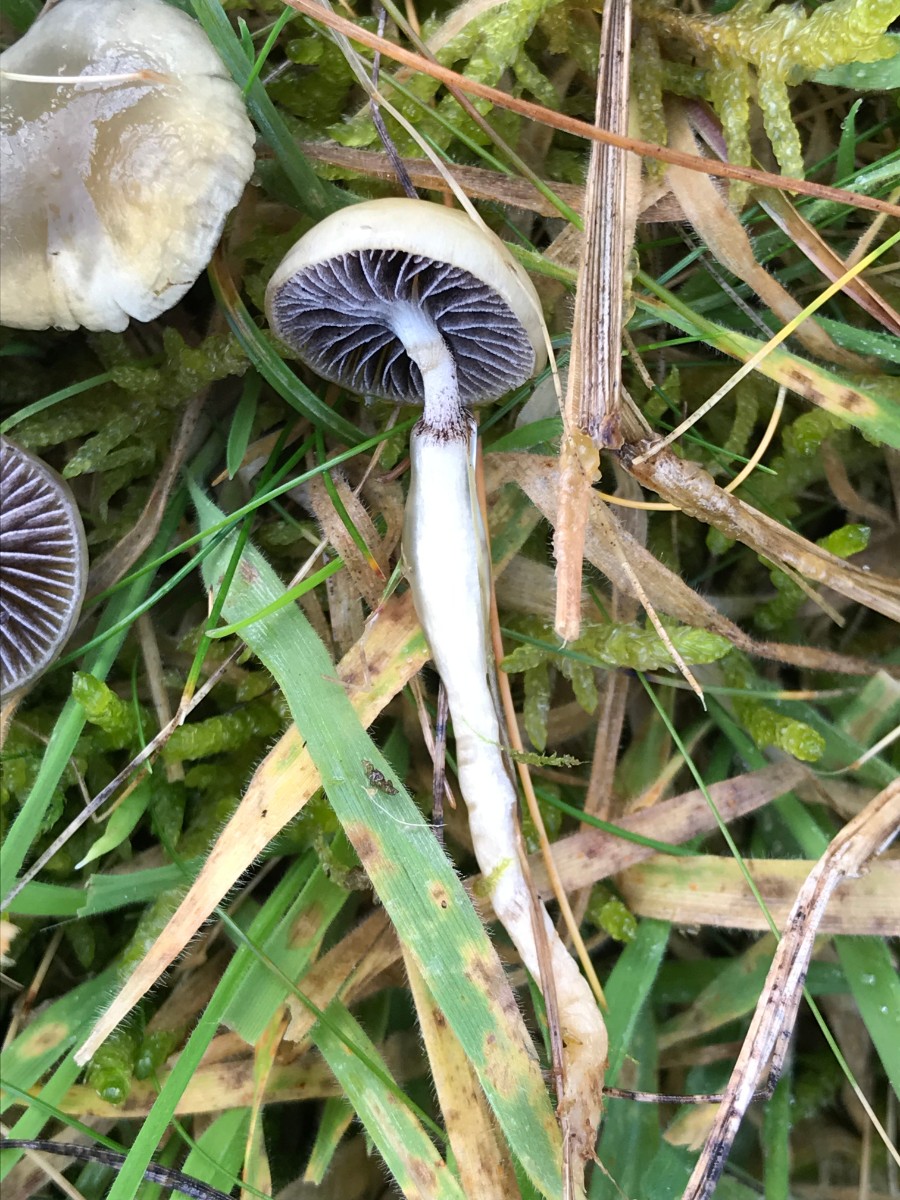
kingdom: Fungi
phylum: Basidiomycota
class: Agaricomycetes
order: Agaricales
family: Strophariaceae
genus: Protostropharia
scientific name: Protostropharia semiglobata
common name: halvkugleformet bredblad
